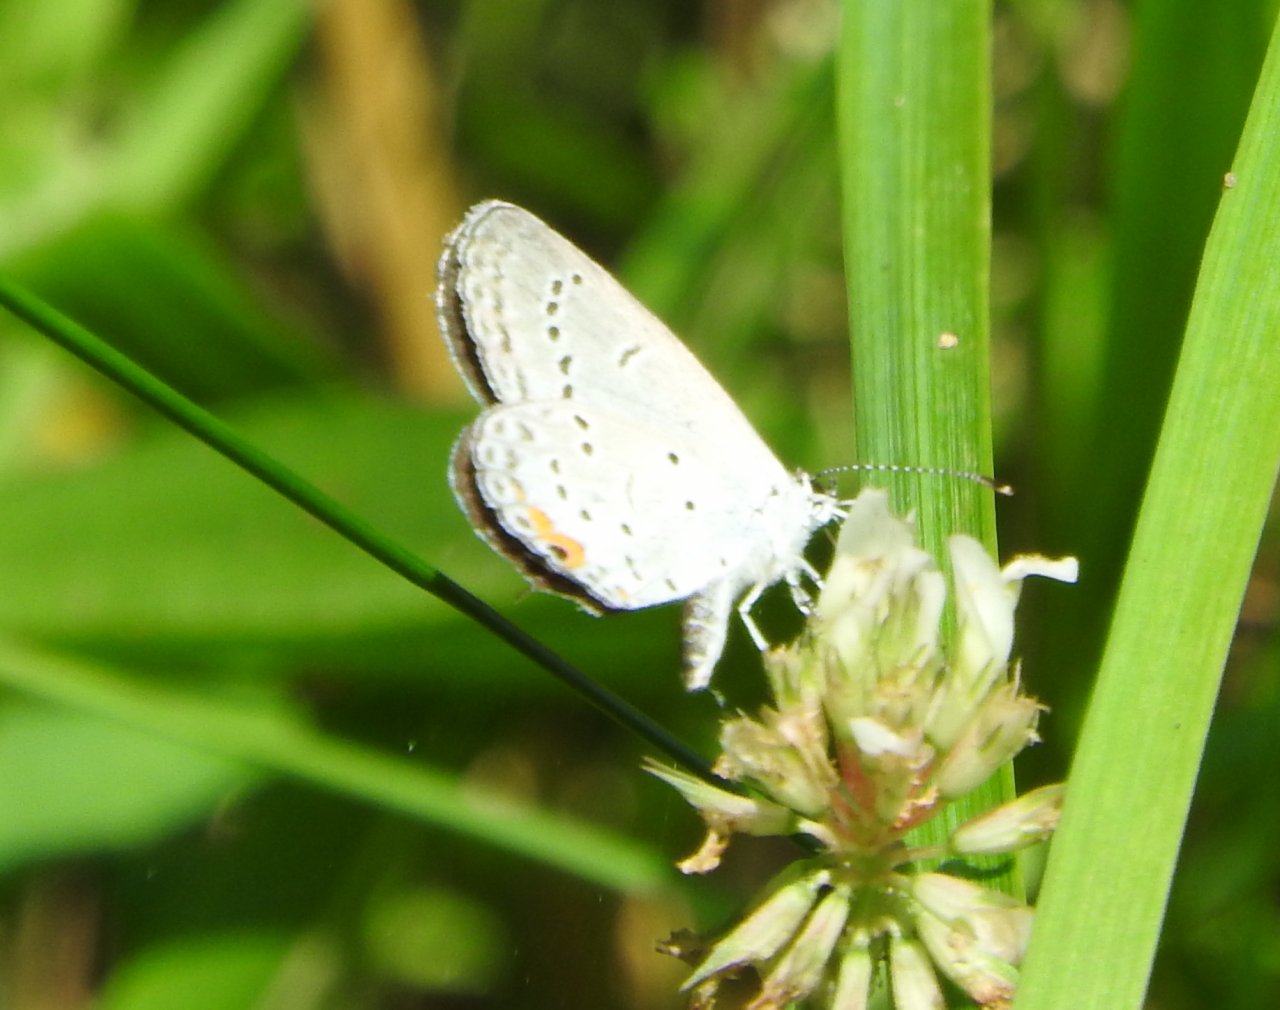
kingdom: Animalia
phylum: Arthropoda
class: Insecta
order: Lepidoptera
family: Lycaenidae
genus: Elkalyce
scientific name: Elkalyce comyntas
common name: Eastern Tailed-Blue
